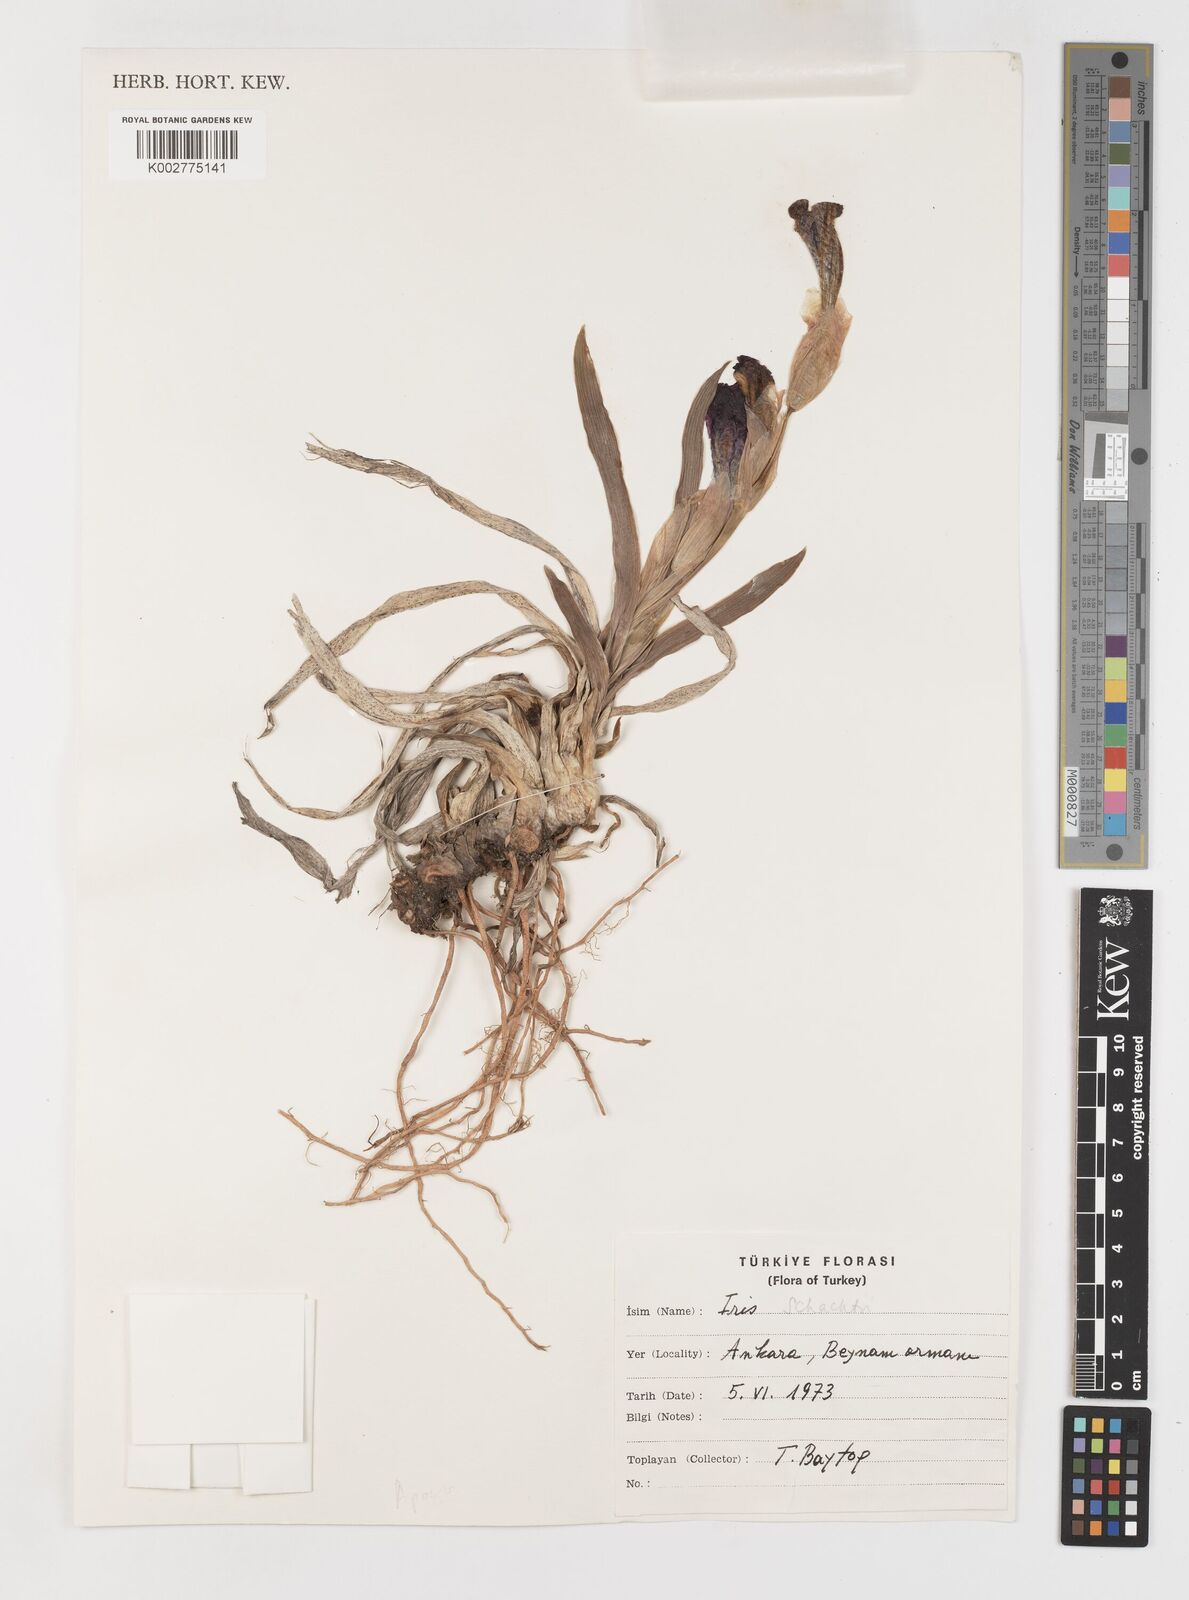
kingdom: Plantae
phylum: Tracheophyta
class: Liliopsida
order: Asparagales
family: Iridaceae
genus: Iris
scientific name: Iris schachtii
